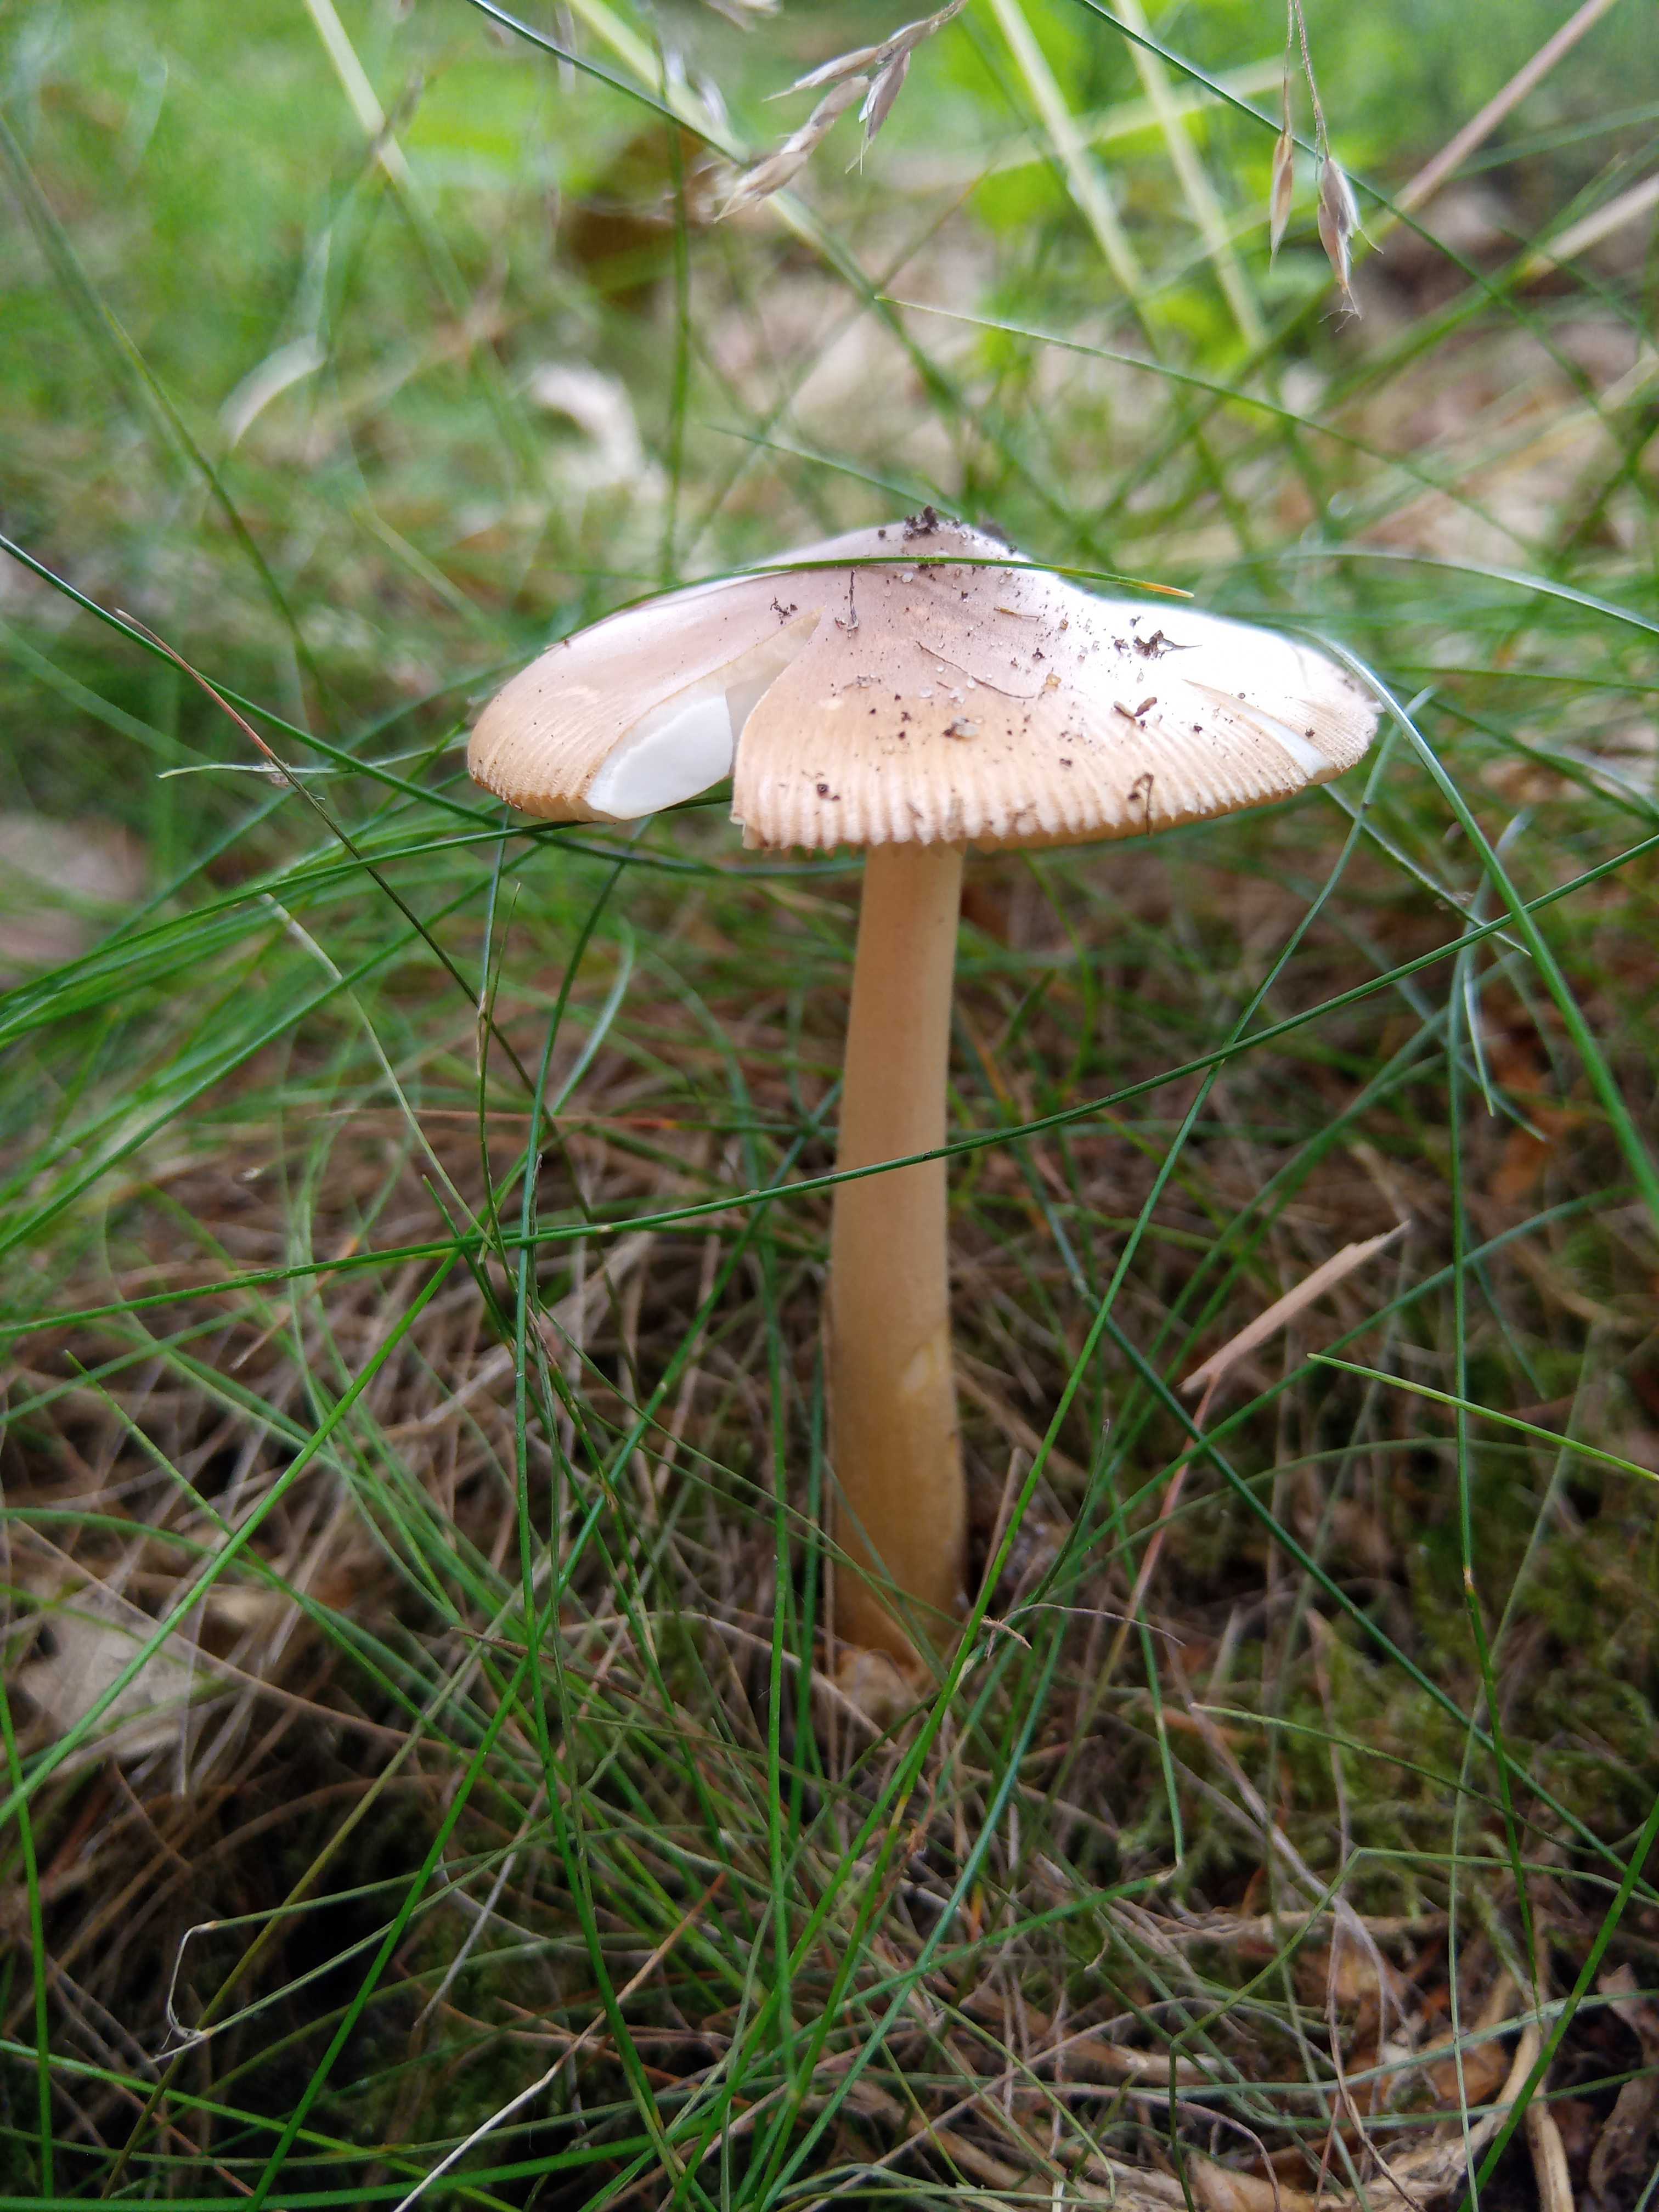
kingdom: Fungi
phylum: Basidiomycota
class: Agaricomycetes
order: Agaricales
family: Amanitaceae
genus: Amanita
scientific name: Amanita fulva
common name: brun kam-fluesvamp
